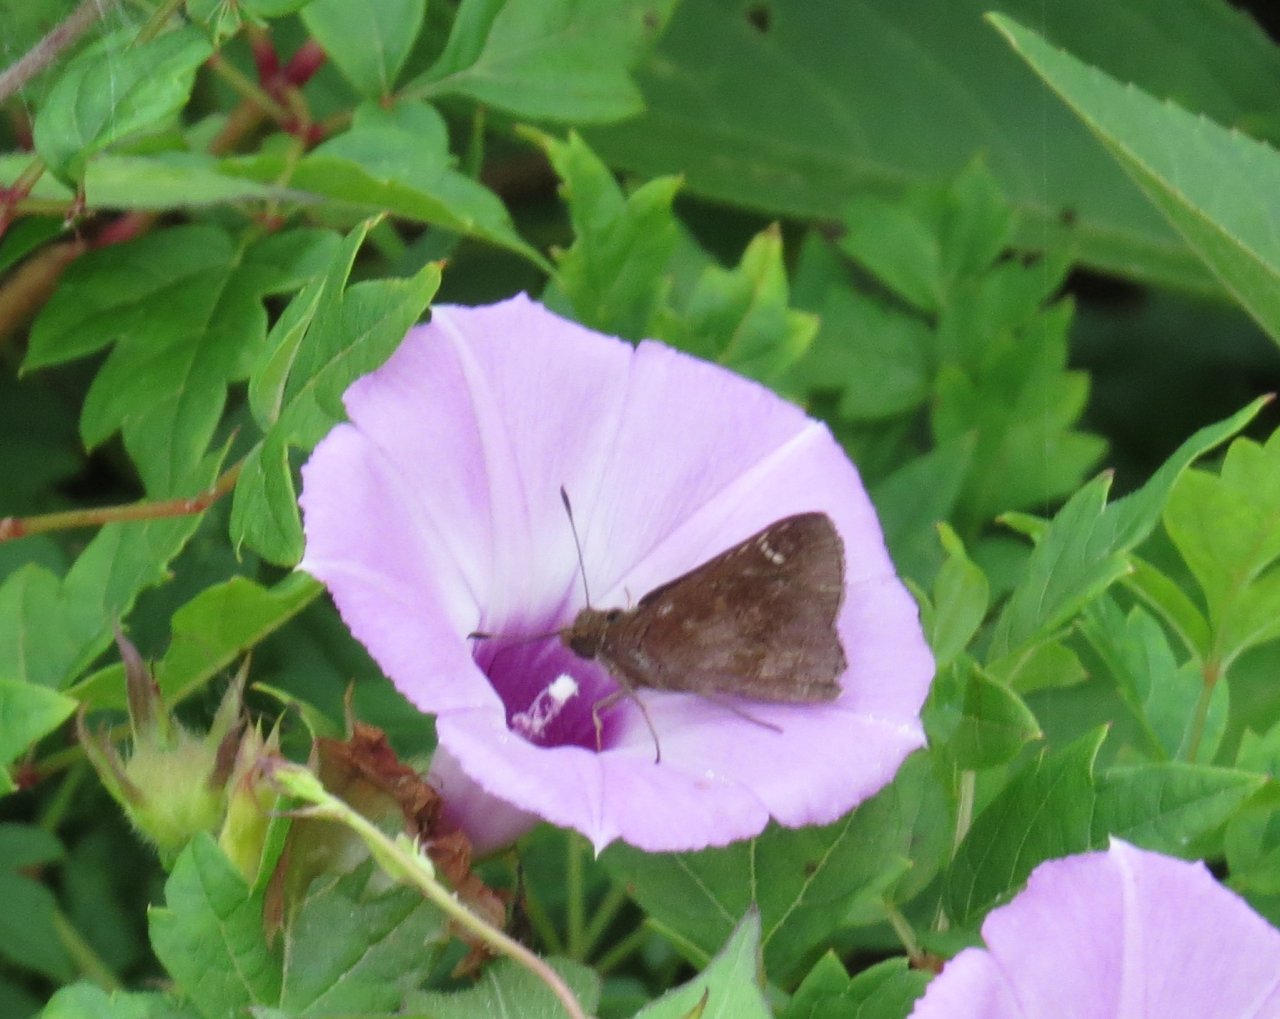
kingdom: Animalia
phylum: Arthropoda
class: Insecta
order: Lepidoptera
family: Hesperiidae
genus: Lerema
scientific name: Lerema accius
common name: Clouded Skipper
